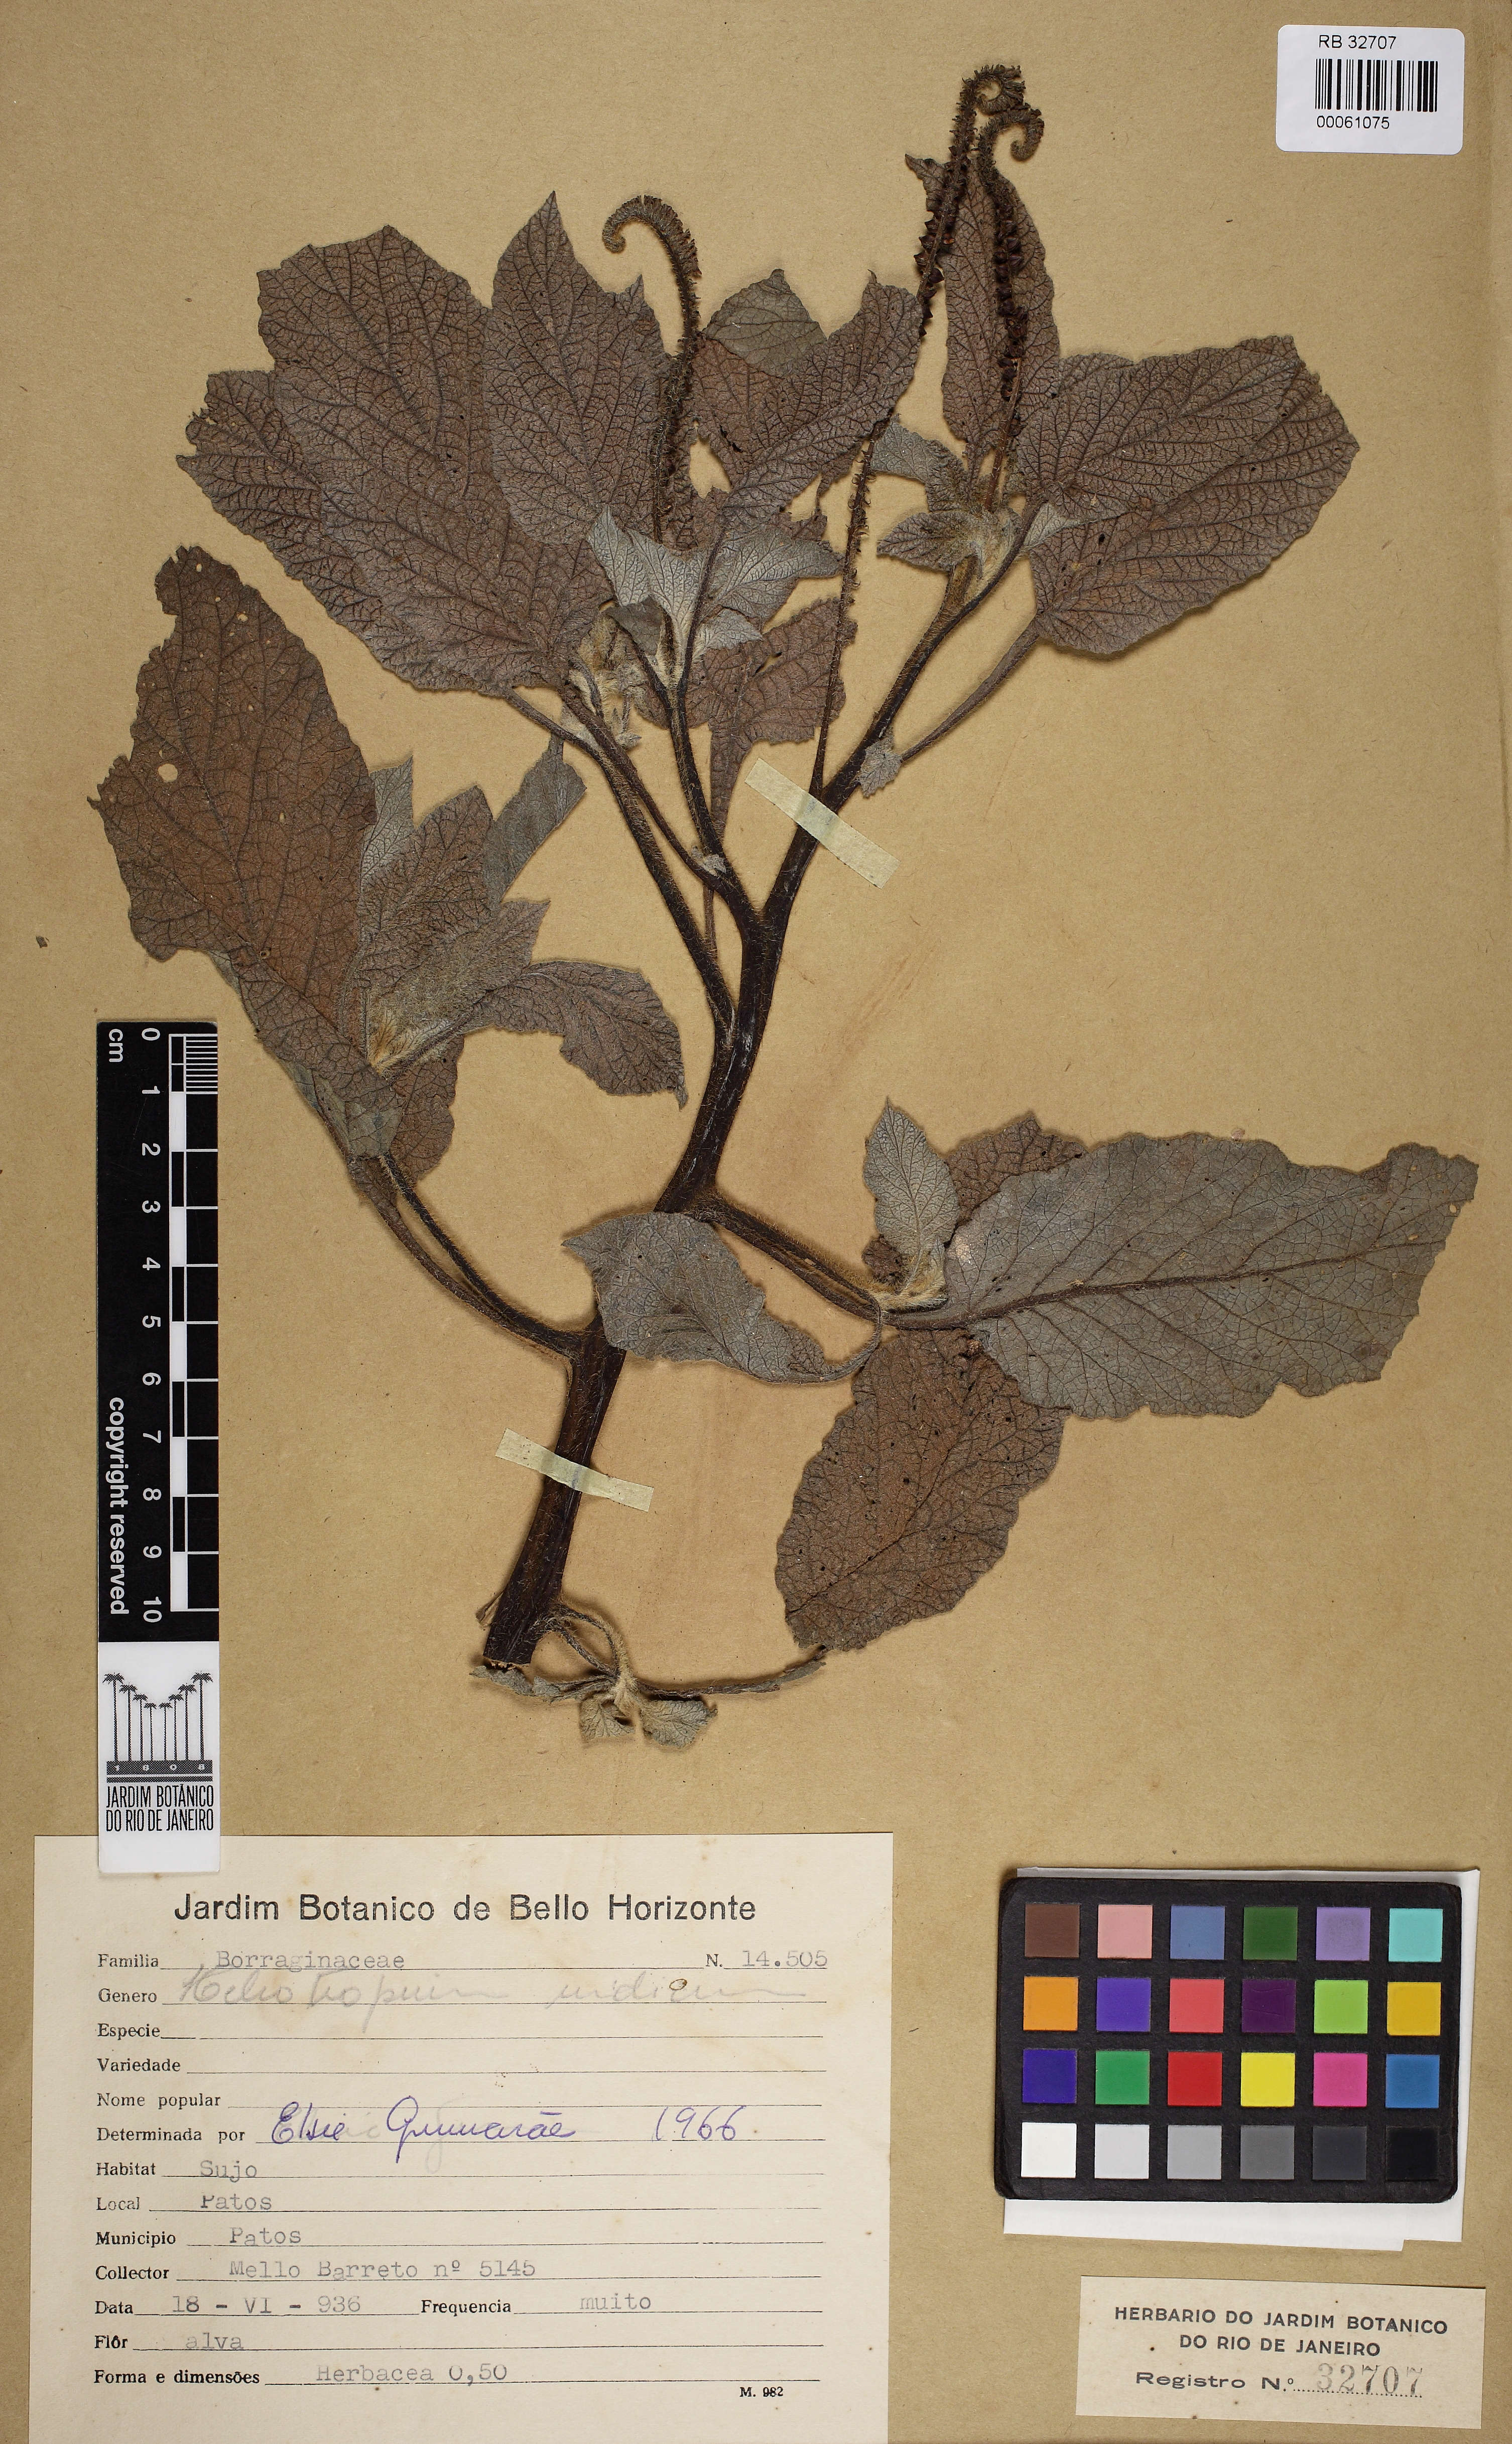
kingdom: Plantae
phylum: Tracheophyta
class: Magnoliopsida
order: Boraginales
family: Heliotropiaceae
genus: Heliotropium
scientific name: Heliotropium indicum
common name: Indian heliotrope
